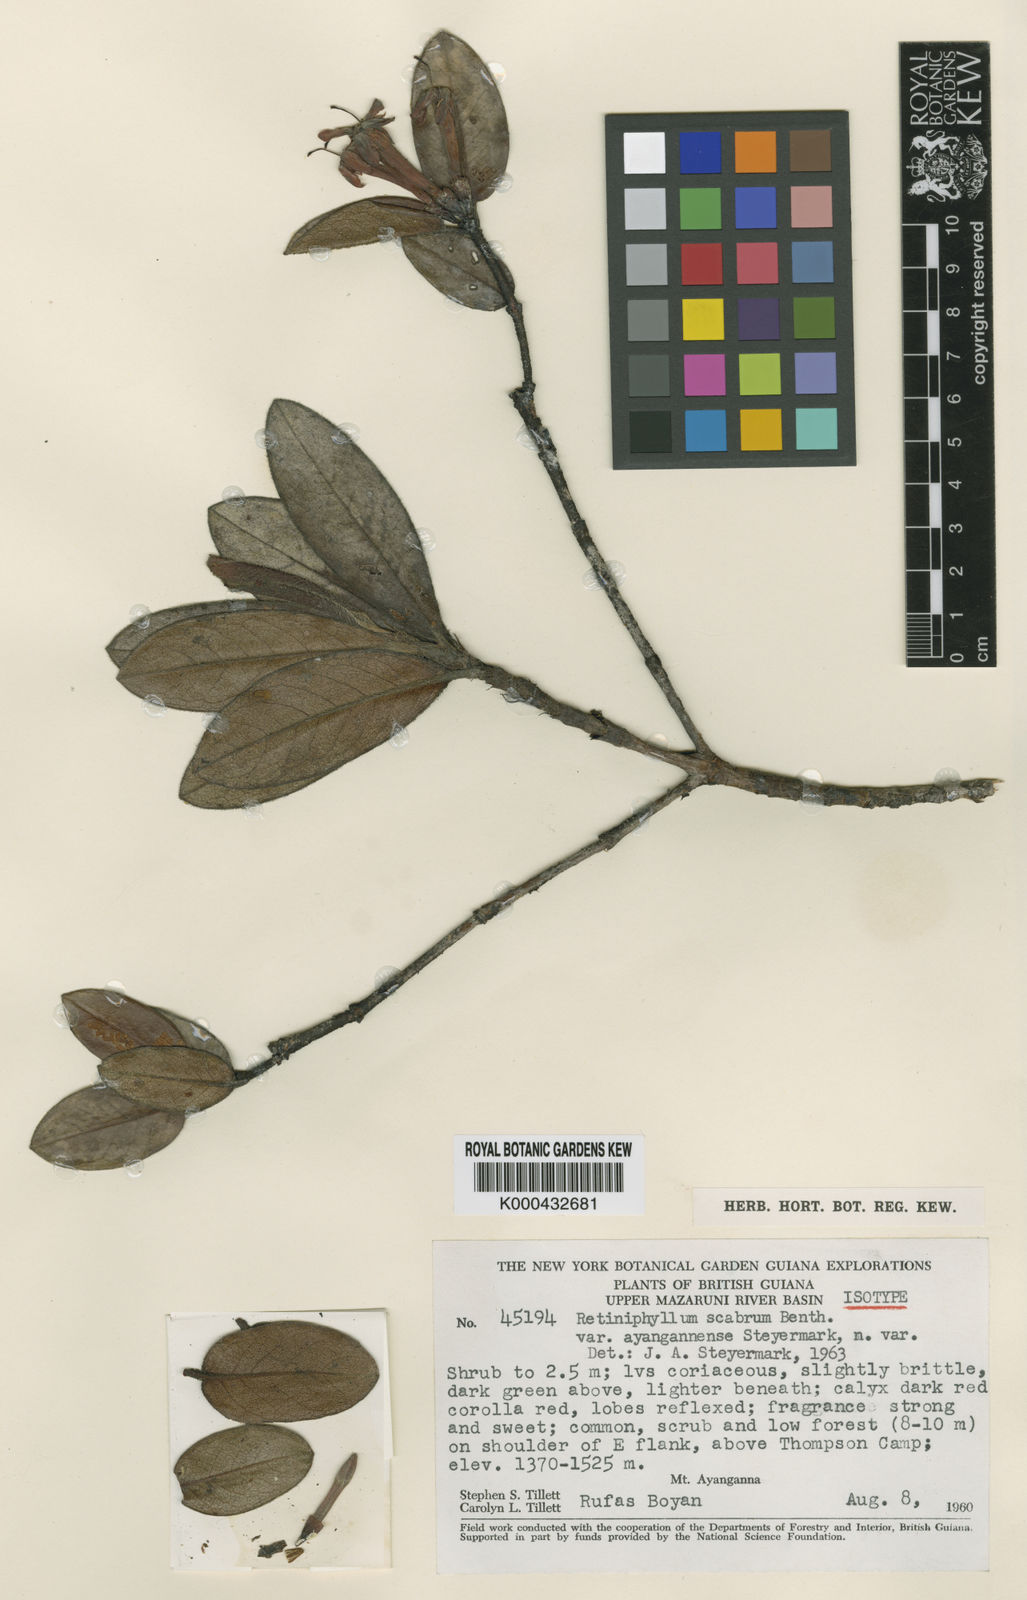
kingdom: Plantae
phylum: Tracheophyta
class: Magnoliopsida
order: Gentianales
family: Rubiaceae
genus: Retiniphyllum
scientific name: Retiniphyllum scabrum
